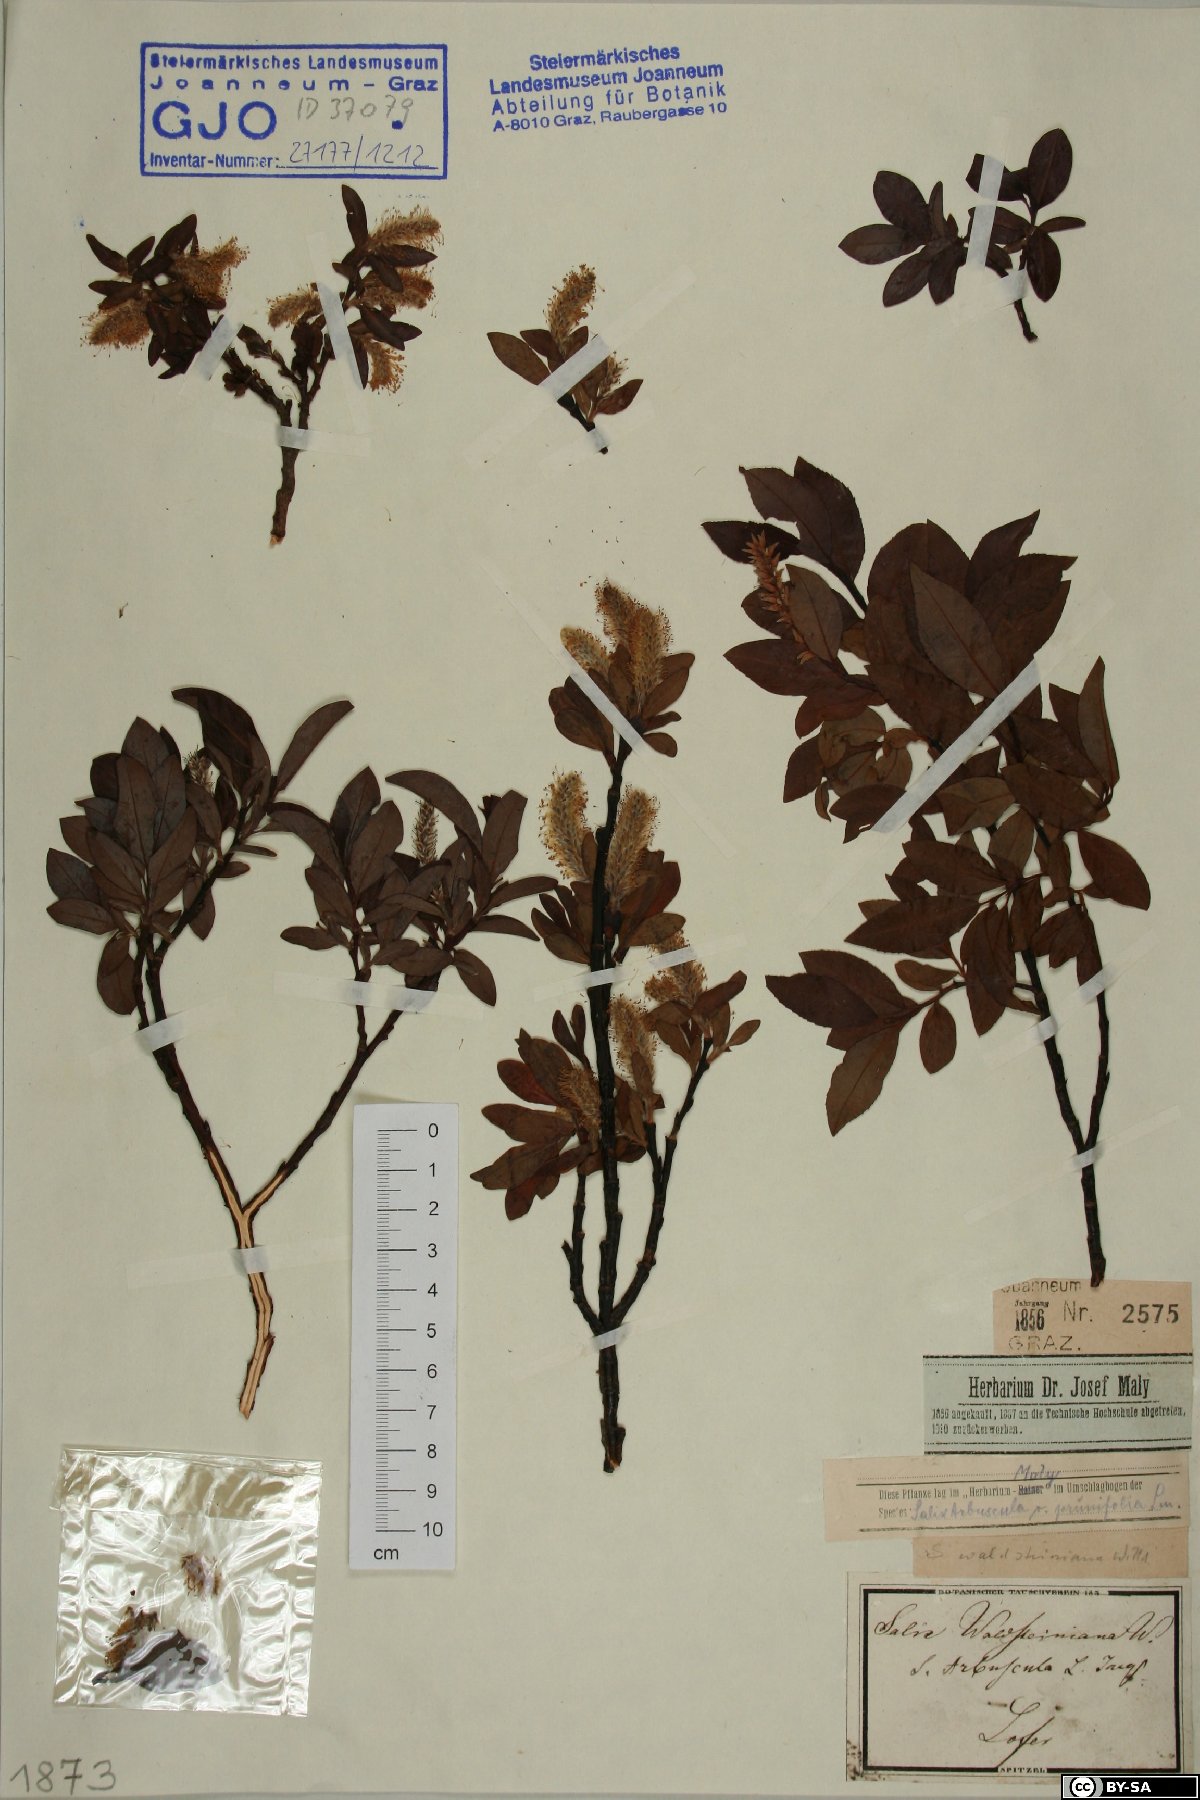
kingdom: Plantae
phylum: Tracheophyta
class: Magnoliopsida
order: Malpighiales
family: Salicaceae
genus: Salix
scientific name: Salix waldsteiniana
